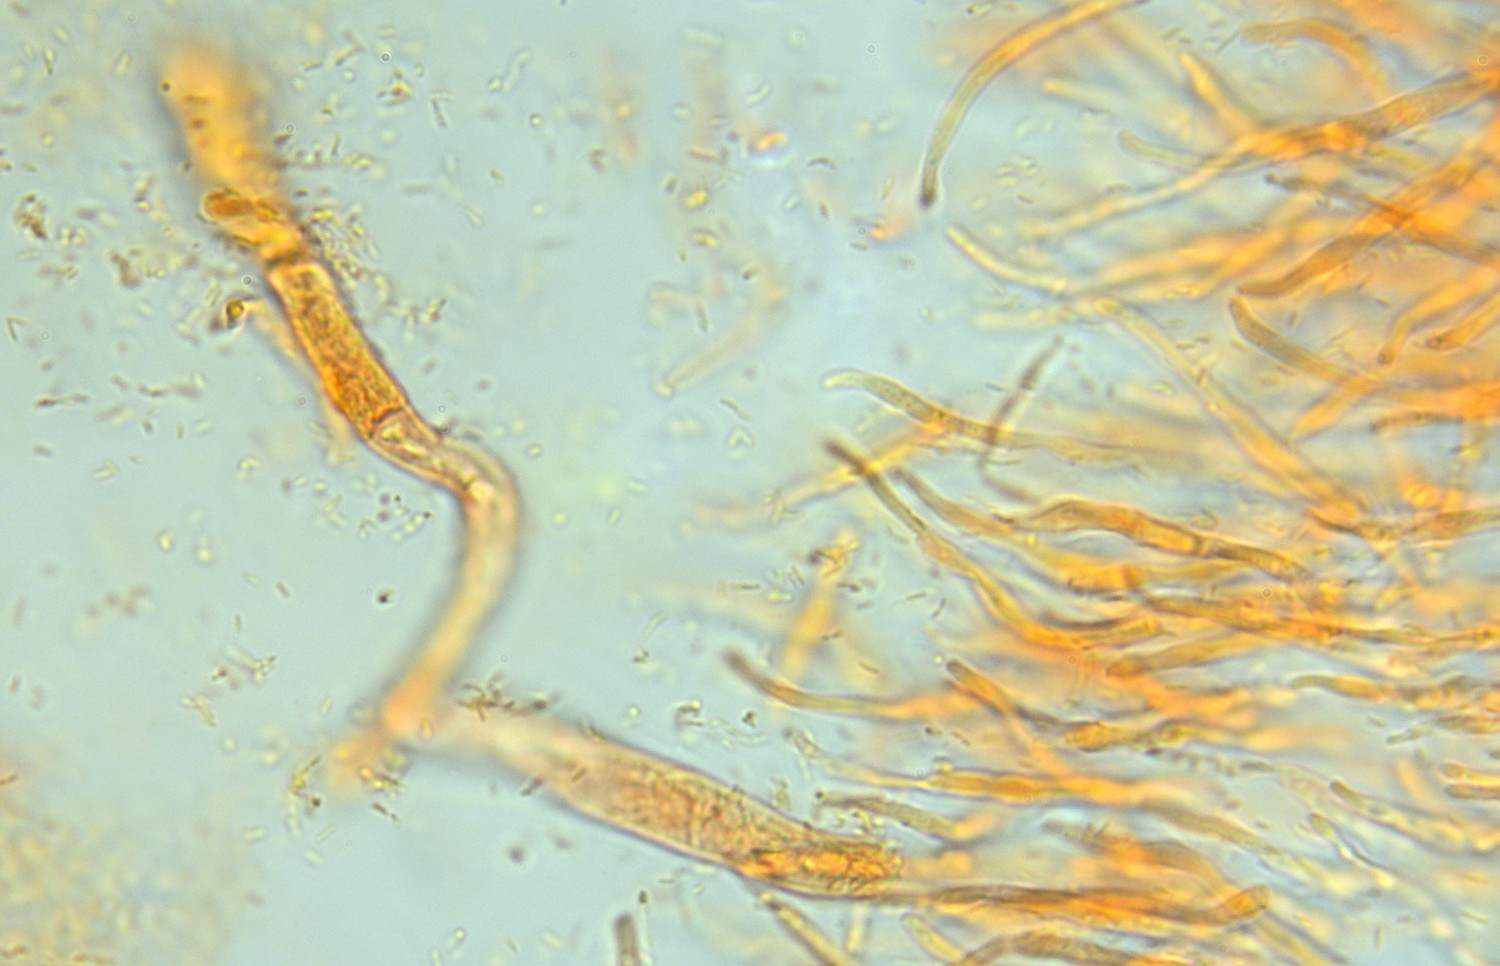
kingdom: Fungi
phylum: Basidiomycota
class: Agaricomycetes
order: Russulales
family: Russulaceae
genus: Russula
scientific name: Russula firmula
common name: nåleskarp skørhat
